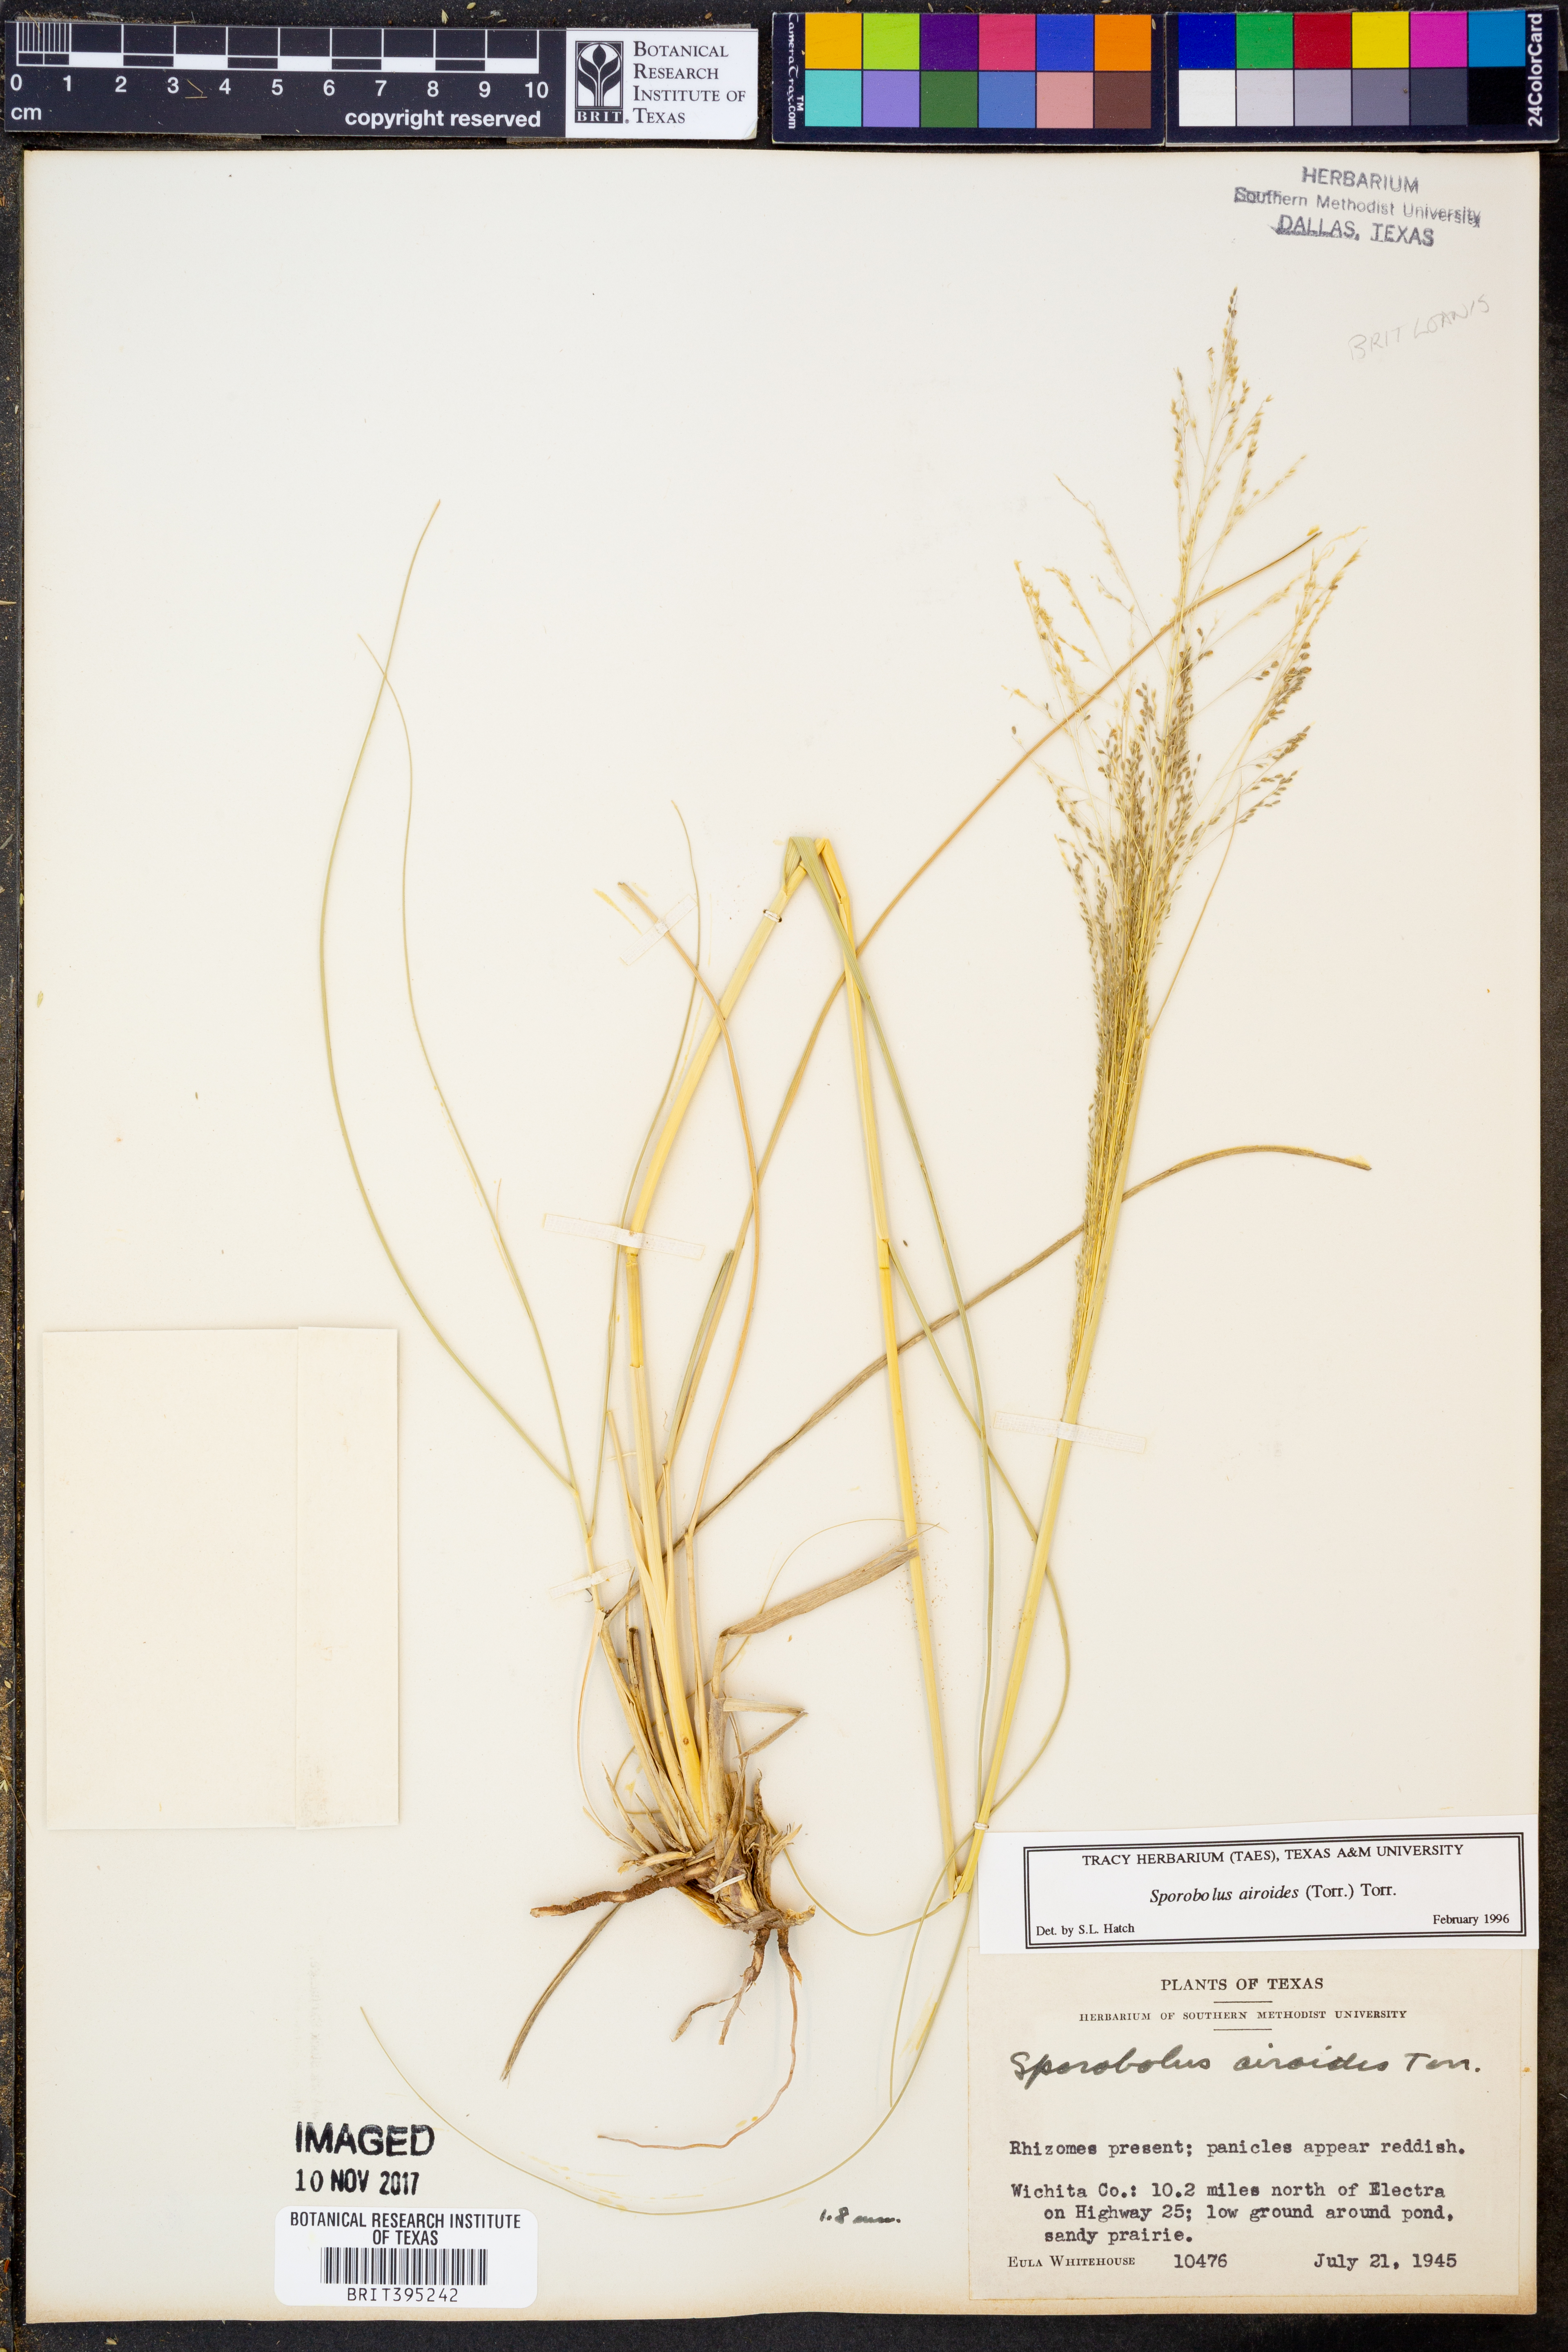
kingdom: Plantae
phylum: Tracheophyta
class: Liliopsida
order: Poales
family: Poaceae
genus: Sporobolus
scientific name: Sporobolus airoides
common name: Alkali sacaton
